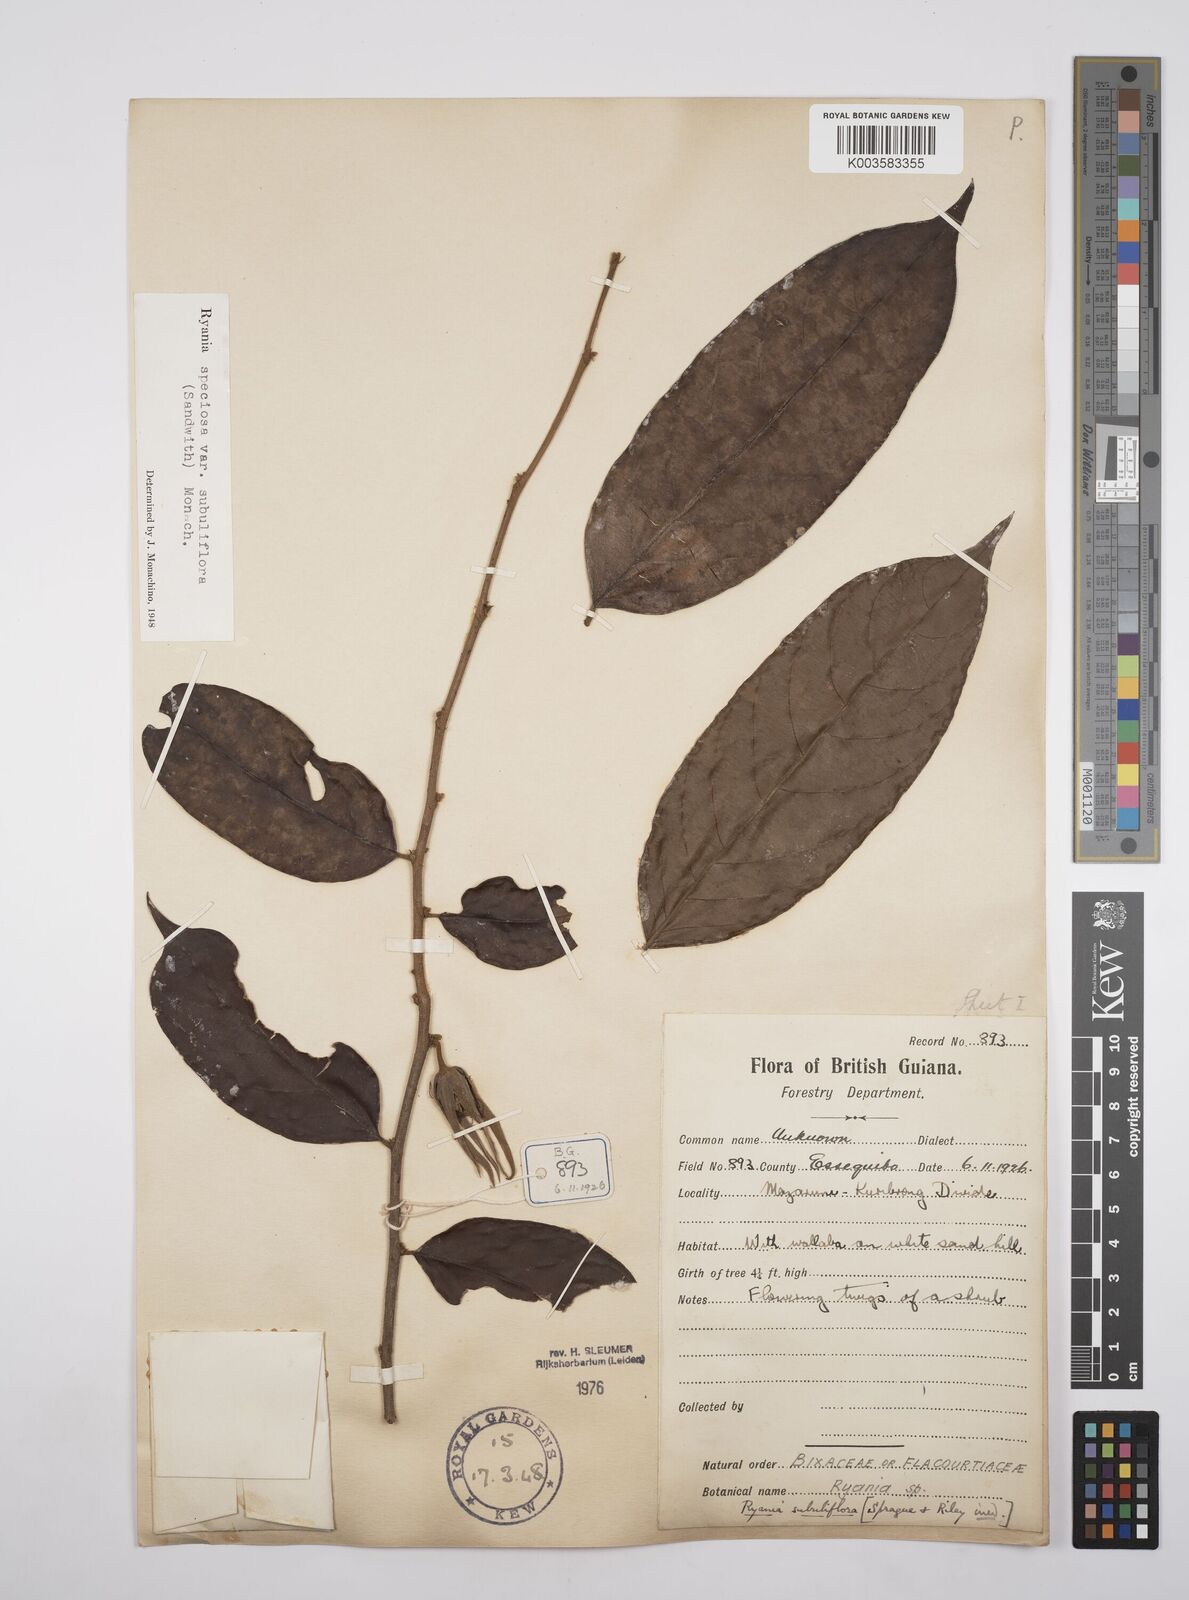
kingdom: Plantae
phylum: Tracheophyta
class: Magnoliopsida
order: Malpighiales
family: Salicaceae
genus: Ryania
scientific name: Ryania speciosa
